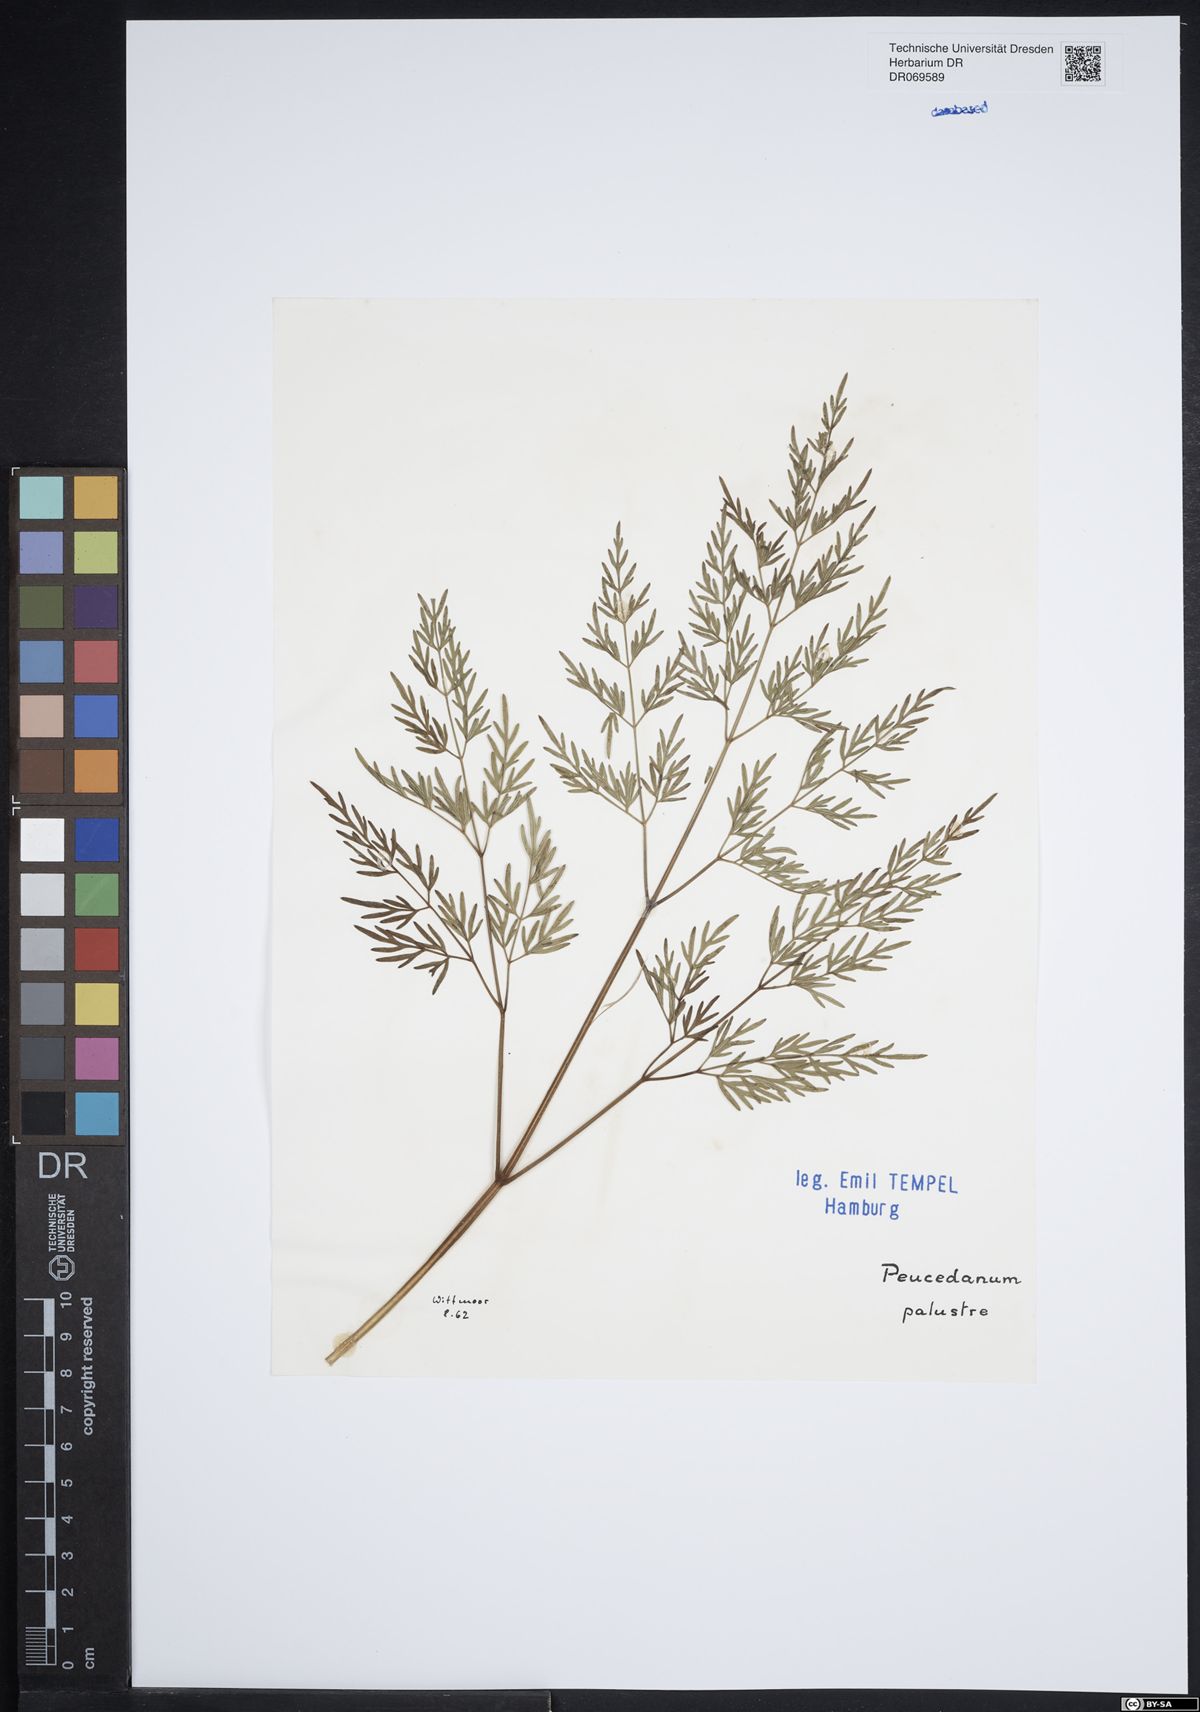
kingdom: Plantae
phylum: Tracheophyta
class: Magnoliopsida
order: Apiales
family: Apiaceae
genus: Thysselinum
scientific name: Thysselinum palustre
